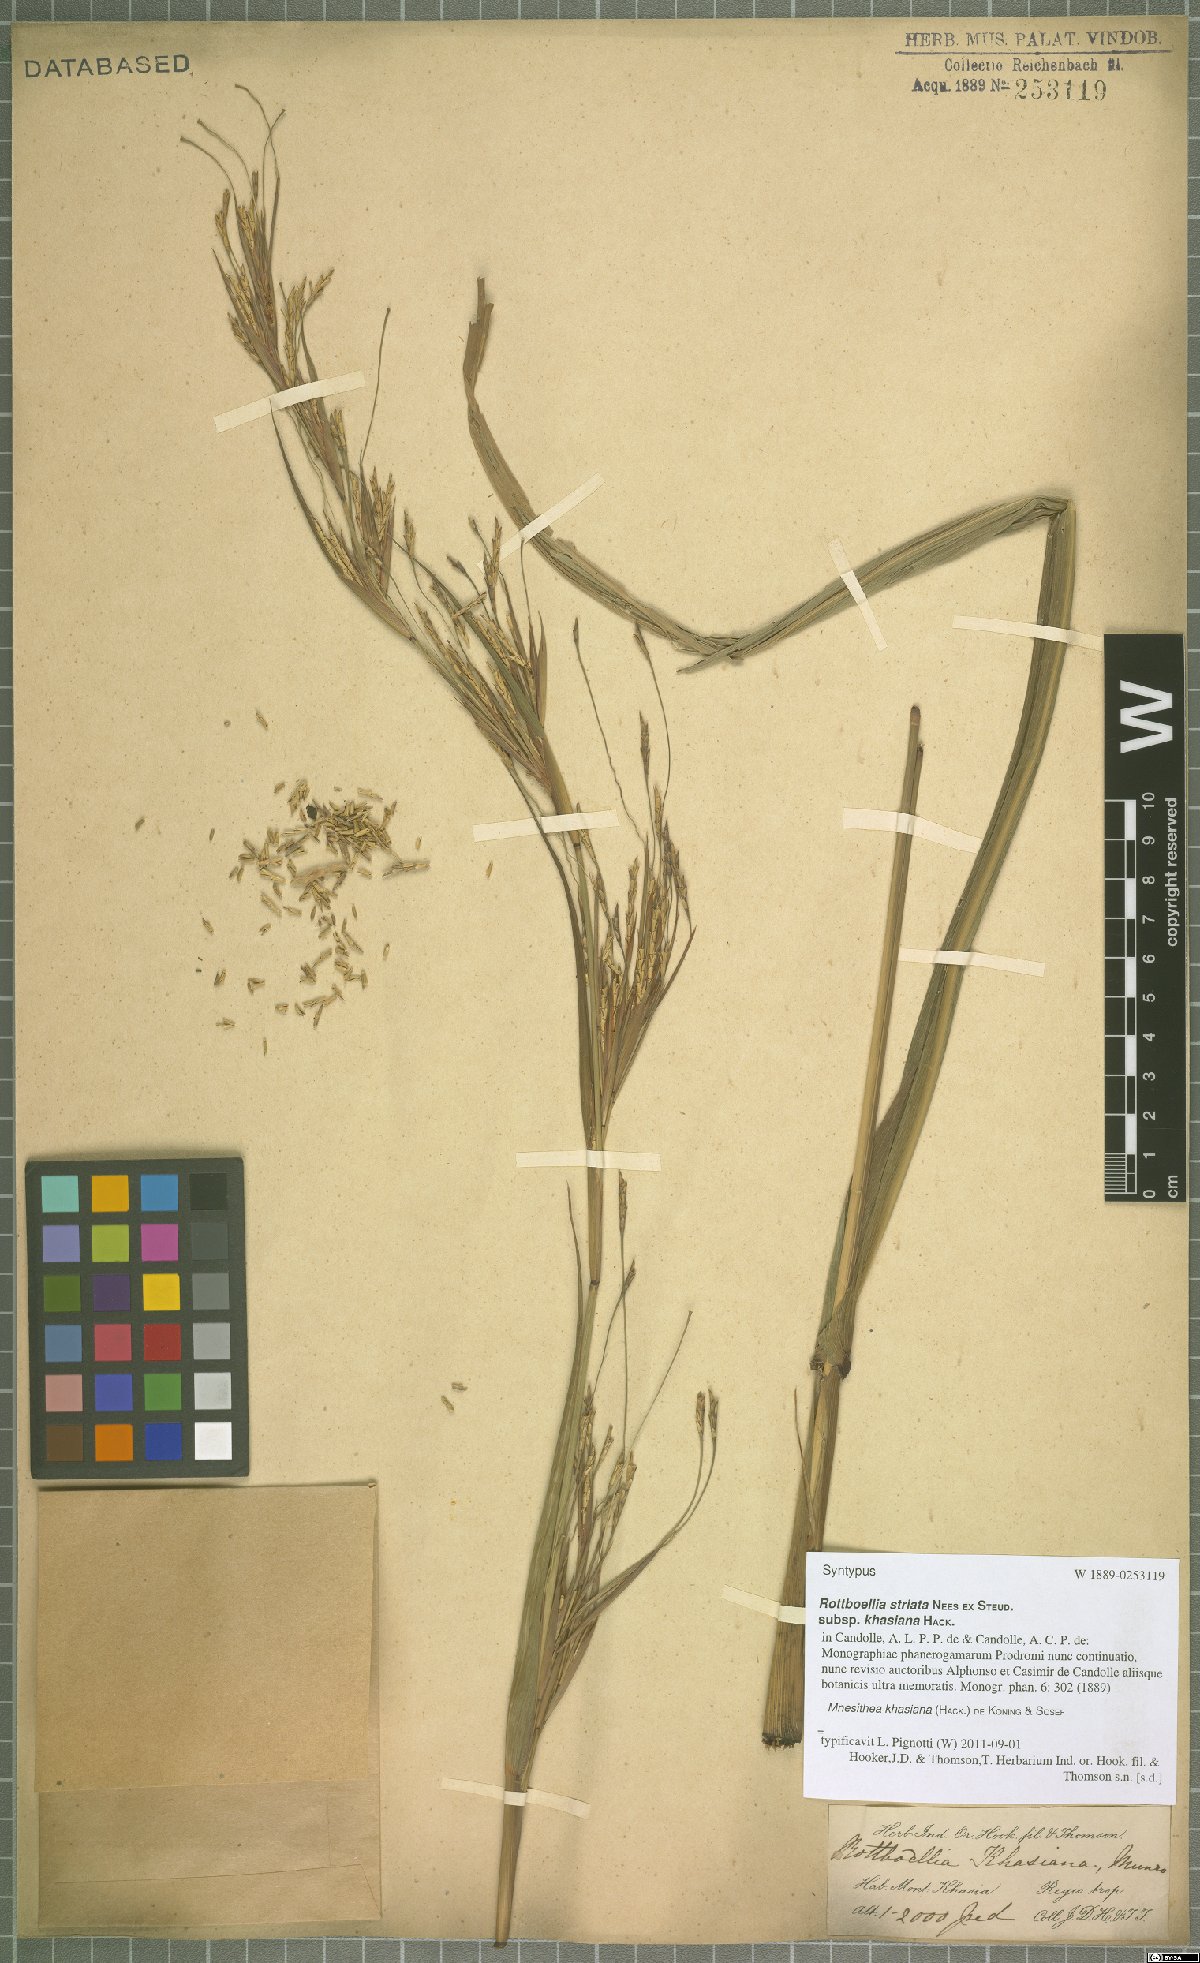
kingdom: Plantae
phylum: Tracheophyta
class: Liliopsida
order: Poales
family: Poaceae
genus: Rottboellia
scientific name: Rottboellia striata
